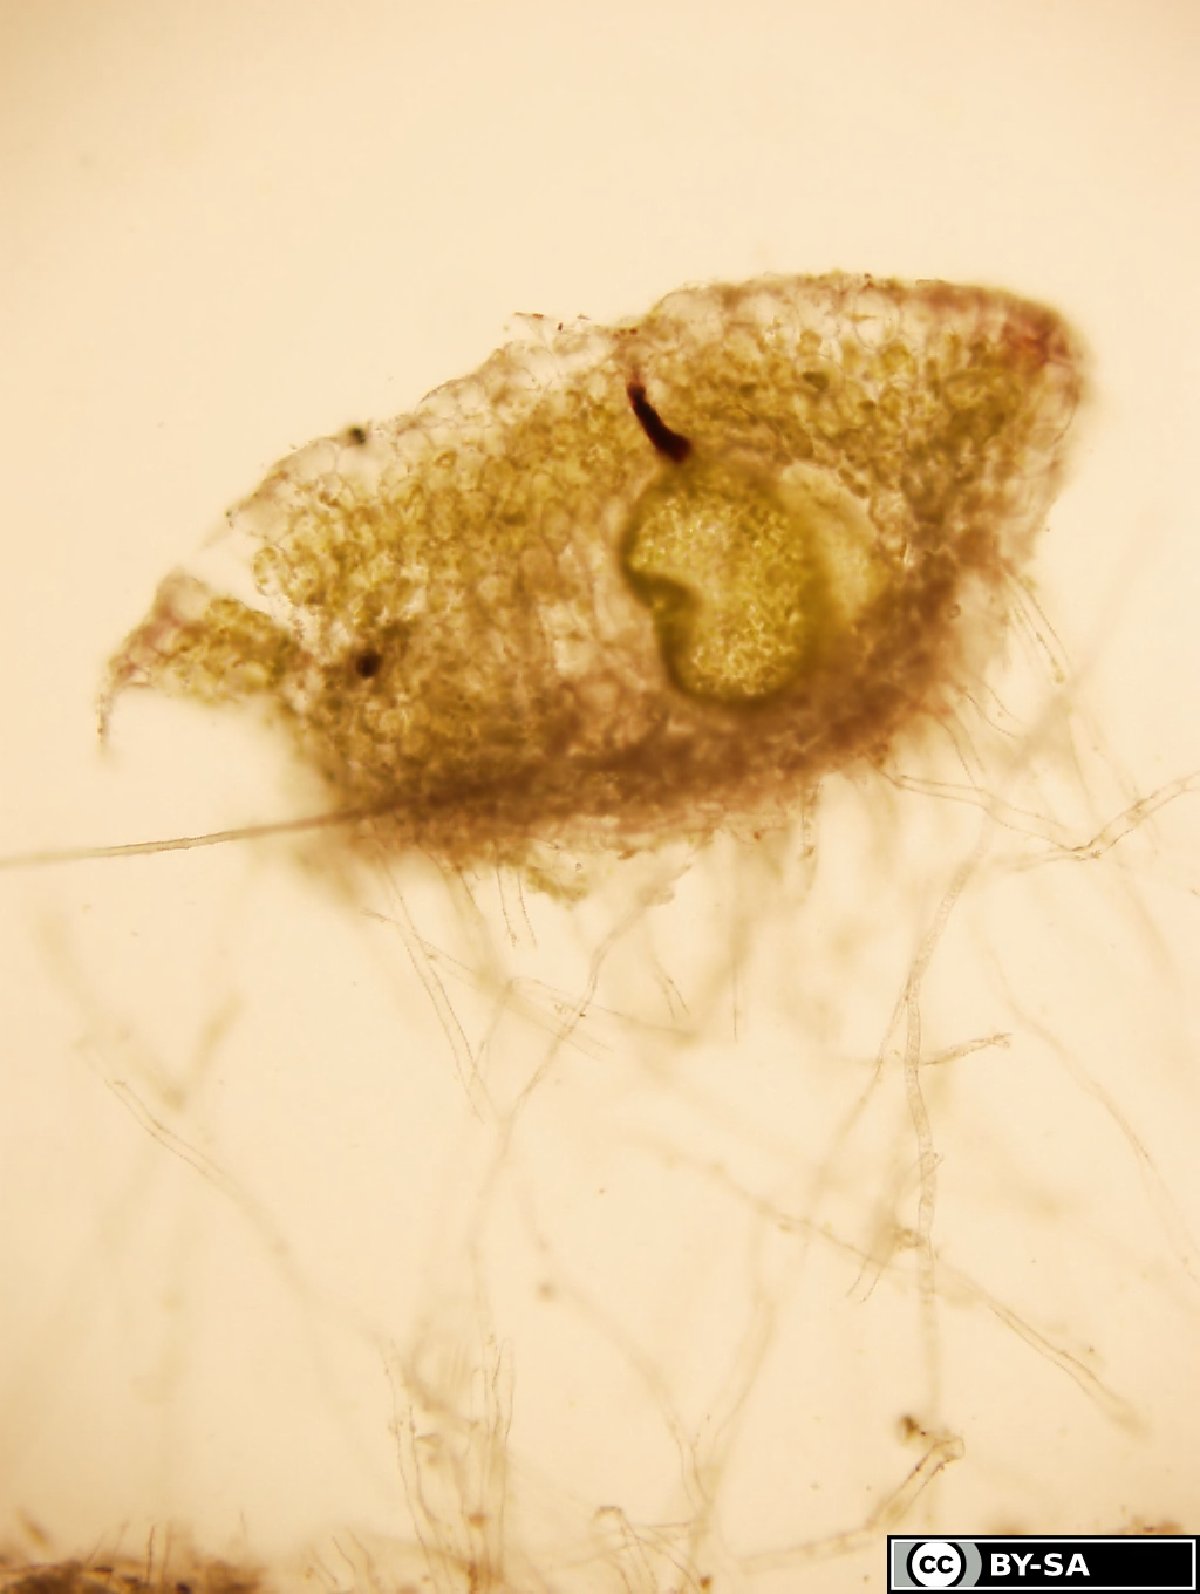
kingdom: Plantae
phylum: Marchantiophyta
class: Marchantiopsida
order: Marchantiales
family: Ricciaceae
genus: Riccia
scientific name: Riccia warnstorfii
